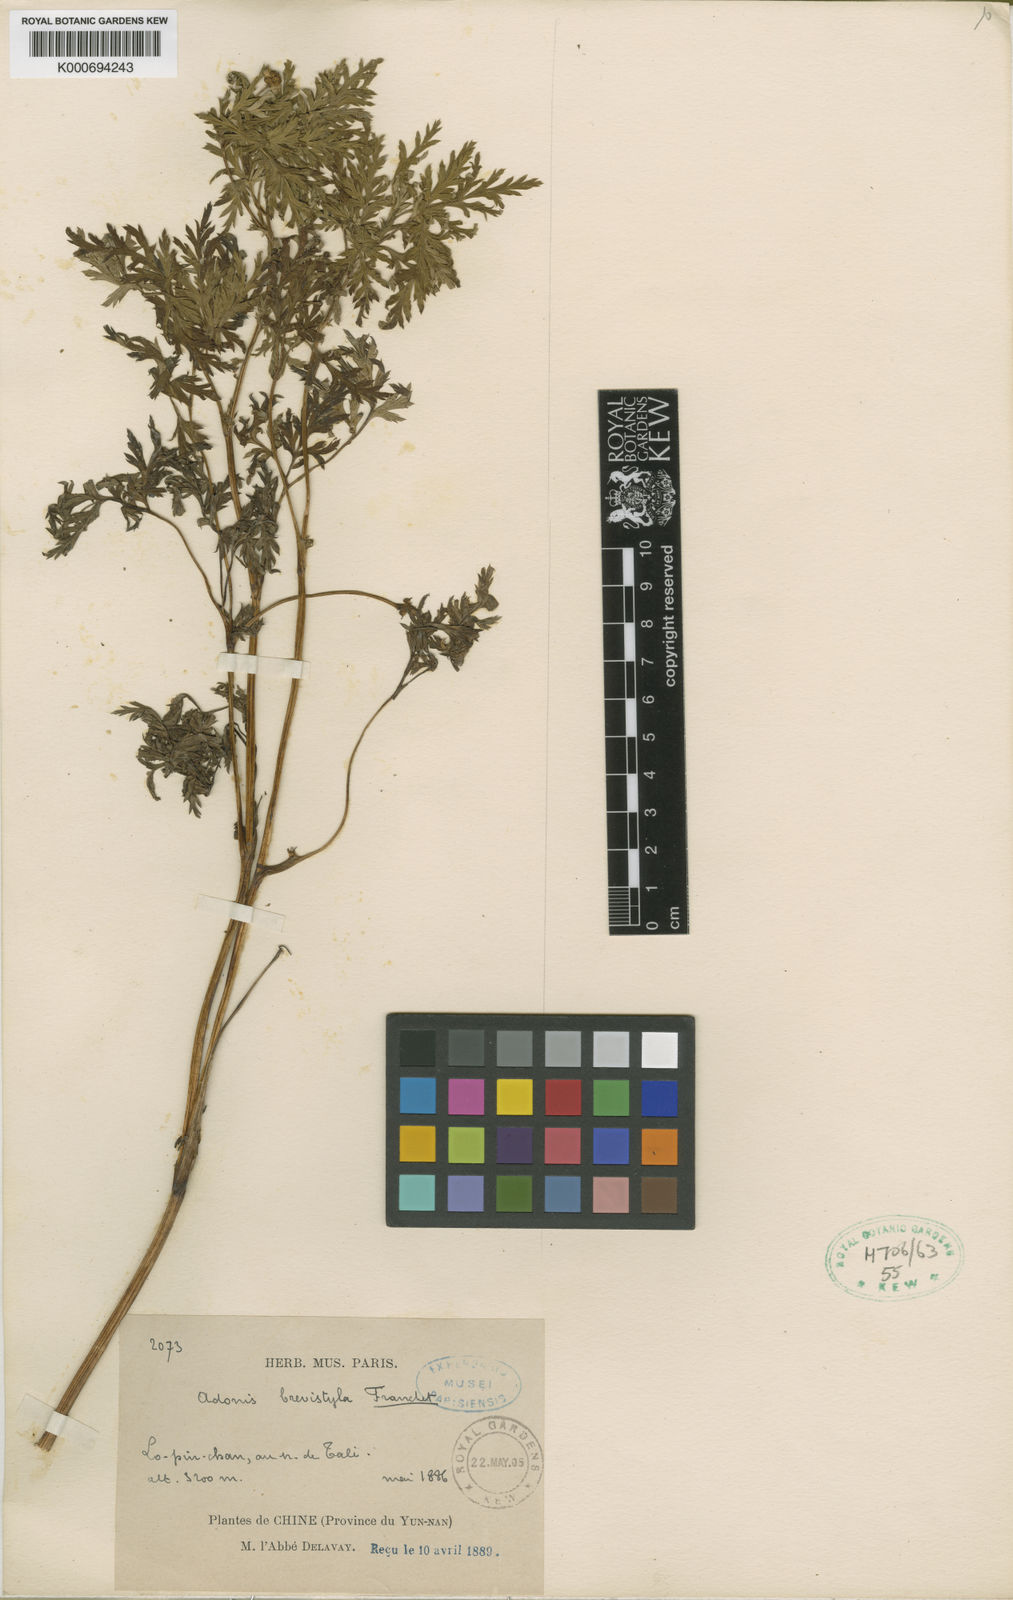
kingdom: Plantae
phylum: Tracheophyta
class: Magnoliopsida
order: Ranunculales
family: Ranunculaceae
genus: Adonis
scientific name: Adonis davidii
